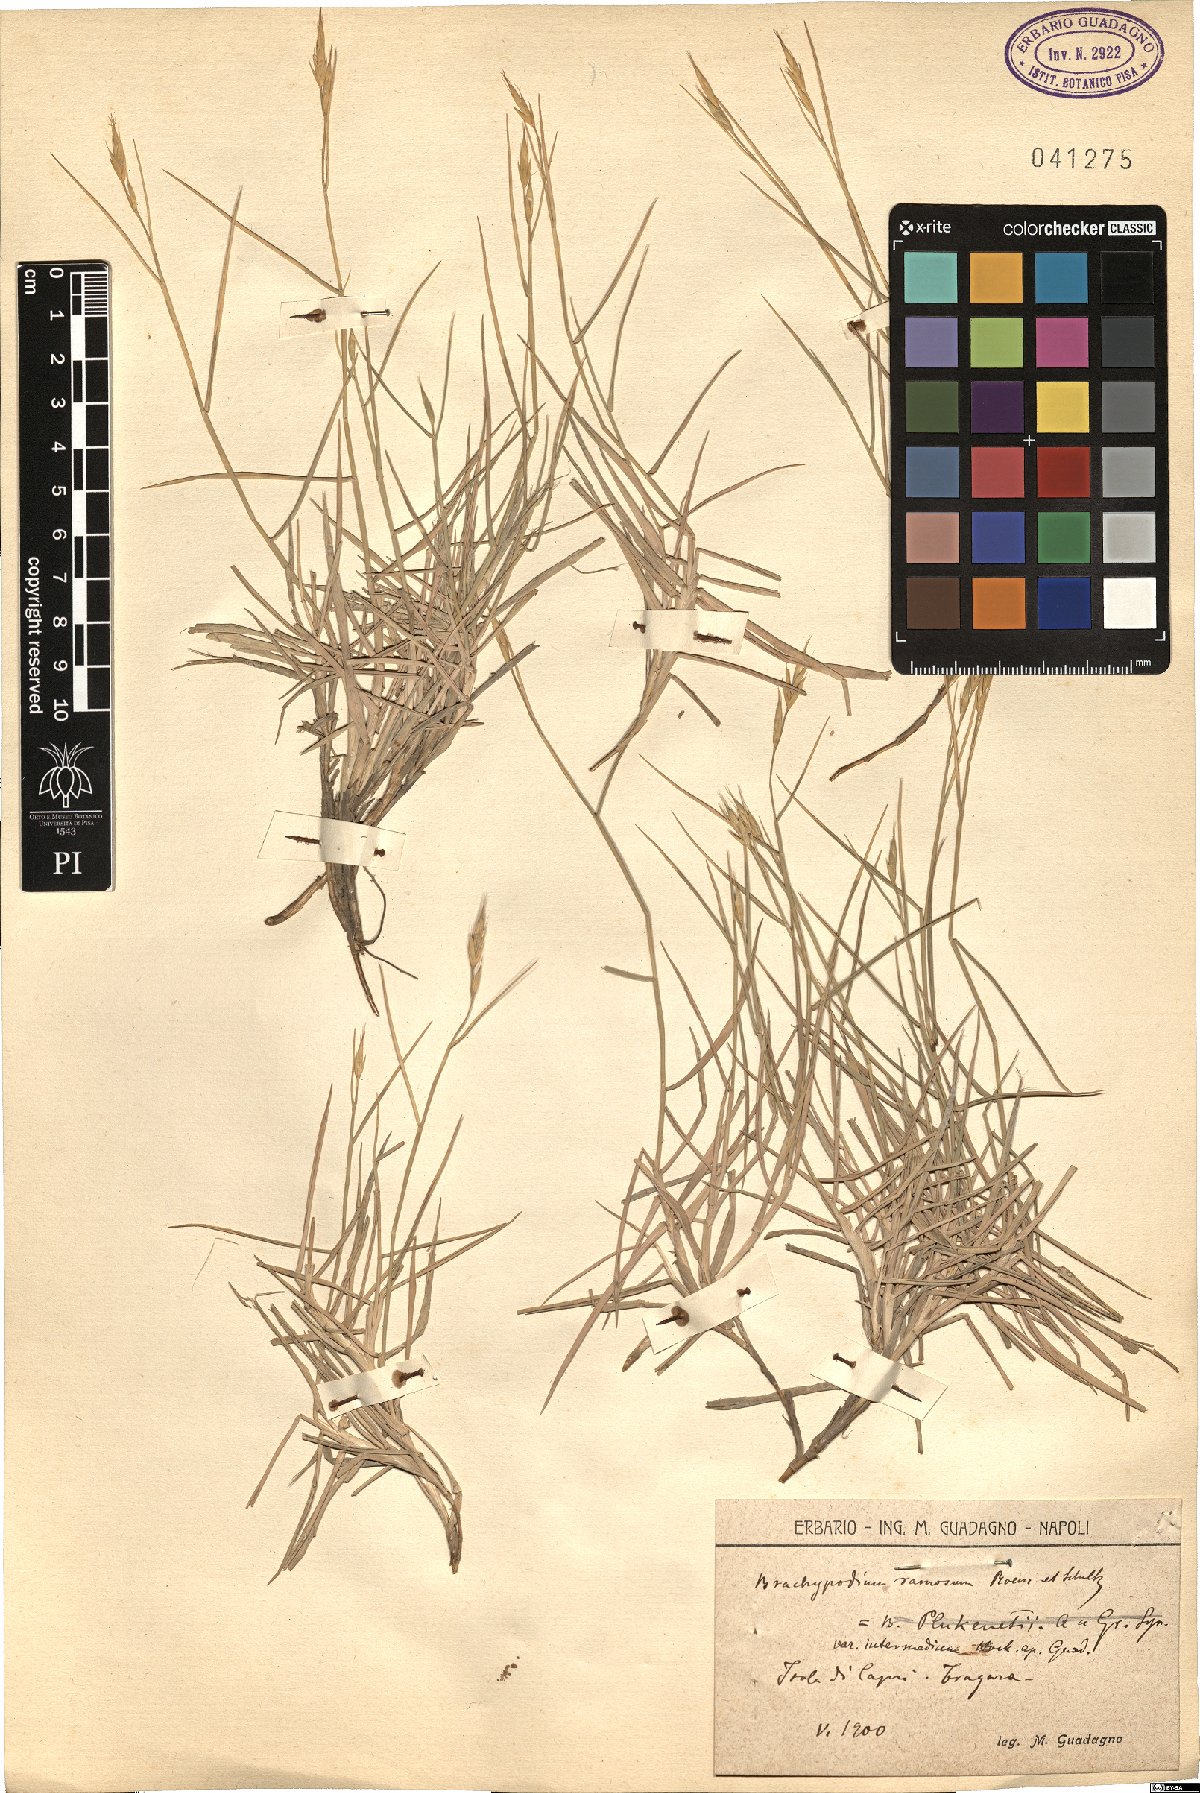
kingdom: Plantae
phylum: Tracheophyta
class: Liliopsida
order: Poales
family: Poaceae
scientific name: Poaceae
